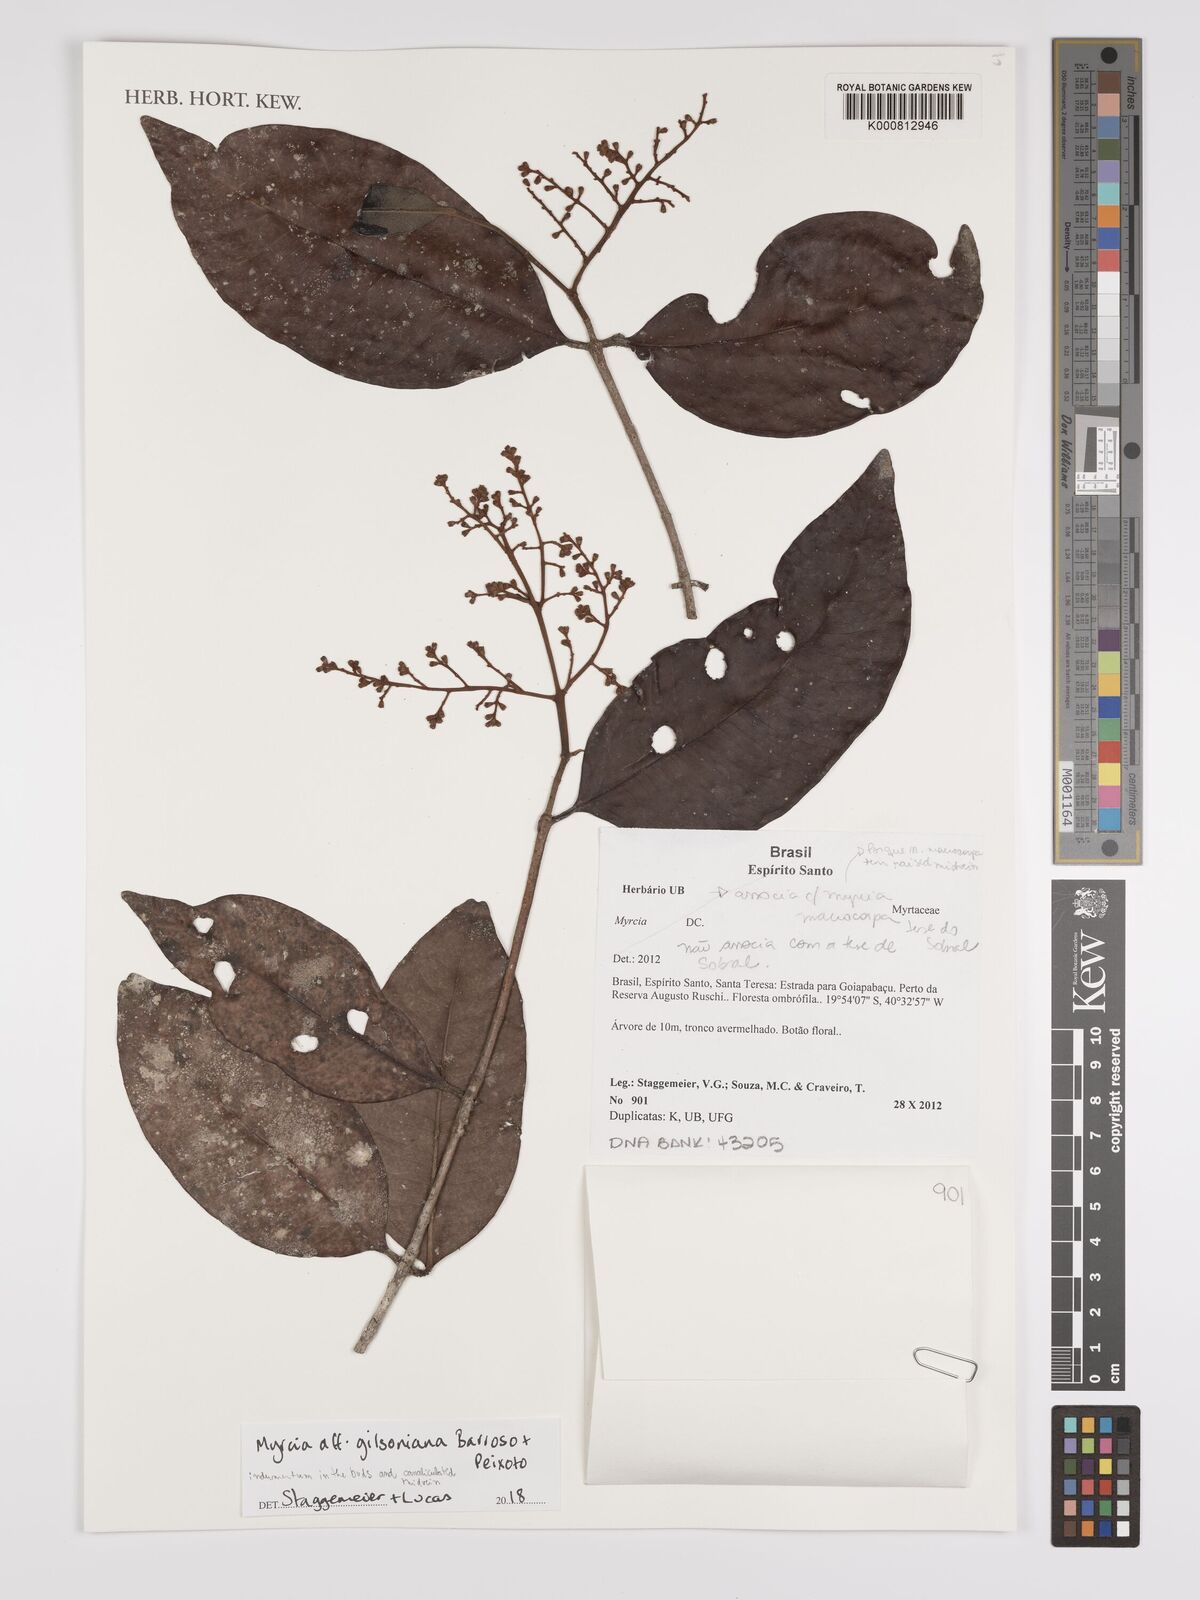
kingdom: Plantae
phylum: Tracheophyta
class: Magnoliopsida
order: Myrtales
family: Myrtaceae
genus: Myrcia
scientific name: Myrcia gilsoniana
